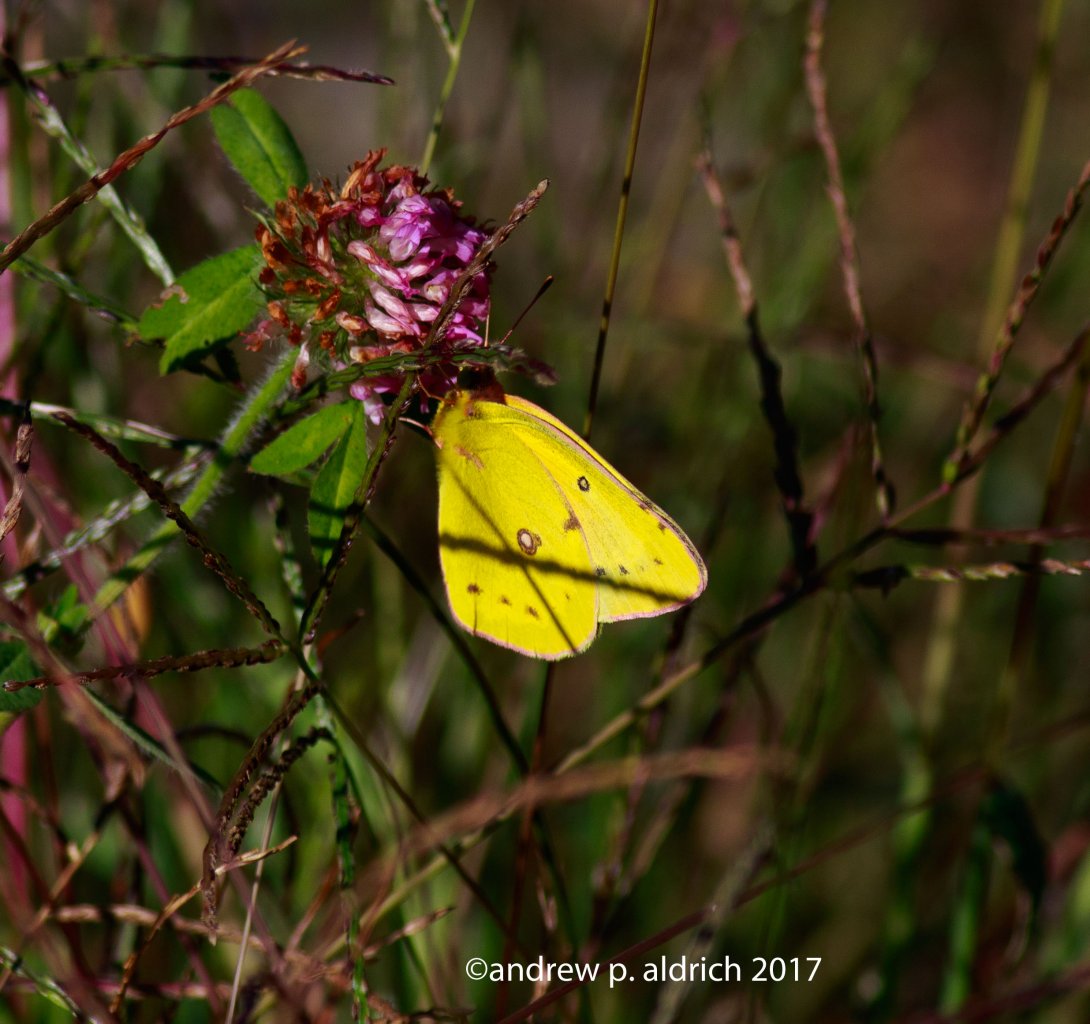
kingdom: Animalia
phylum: Arthropoda
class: Insecta
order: Lepidoptera
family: Pieridae
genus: Colias
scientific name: Colias philodice
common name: Clouded Sulphur
